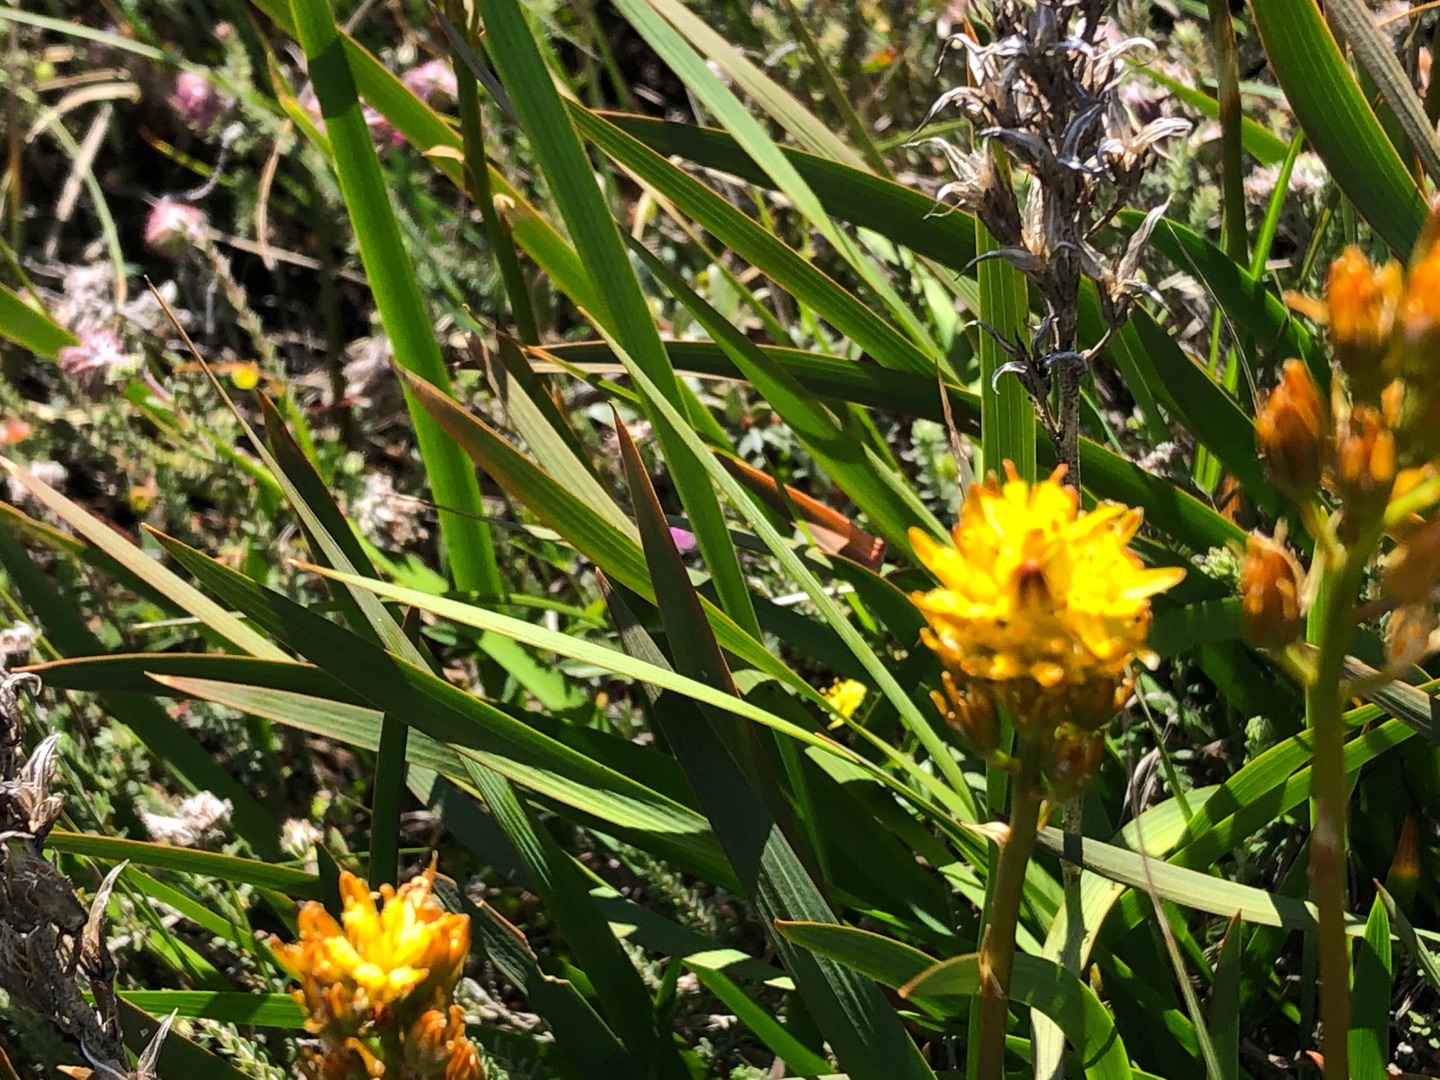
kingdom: Plantae
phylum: Tracheophyta
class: Liliopsida
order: Dioscoreales
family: Nartheciaceae
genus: Narthecium
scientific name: Narthecium ossifragum
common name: Benbræk
